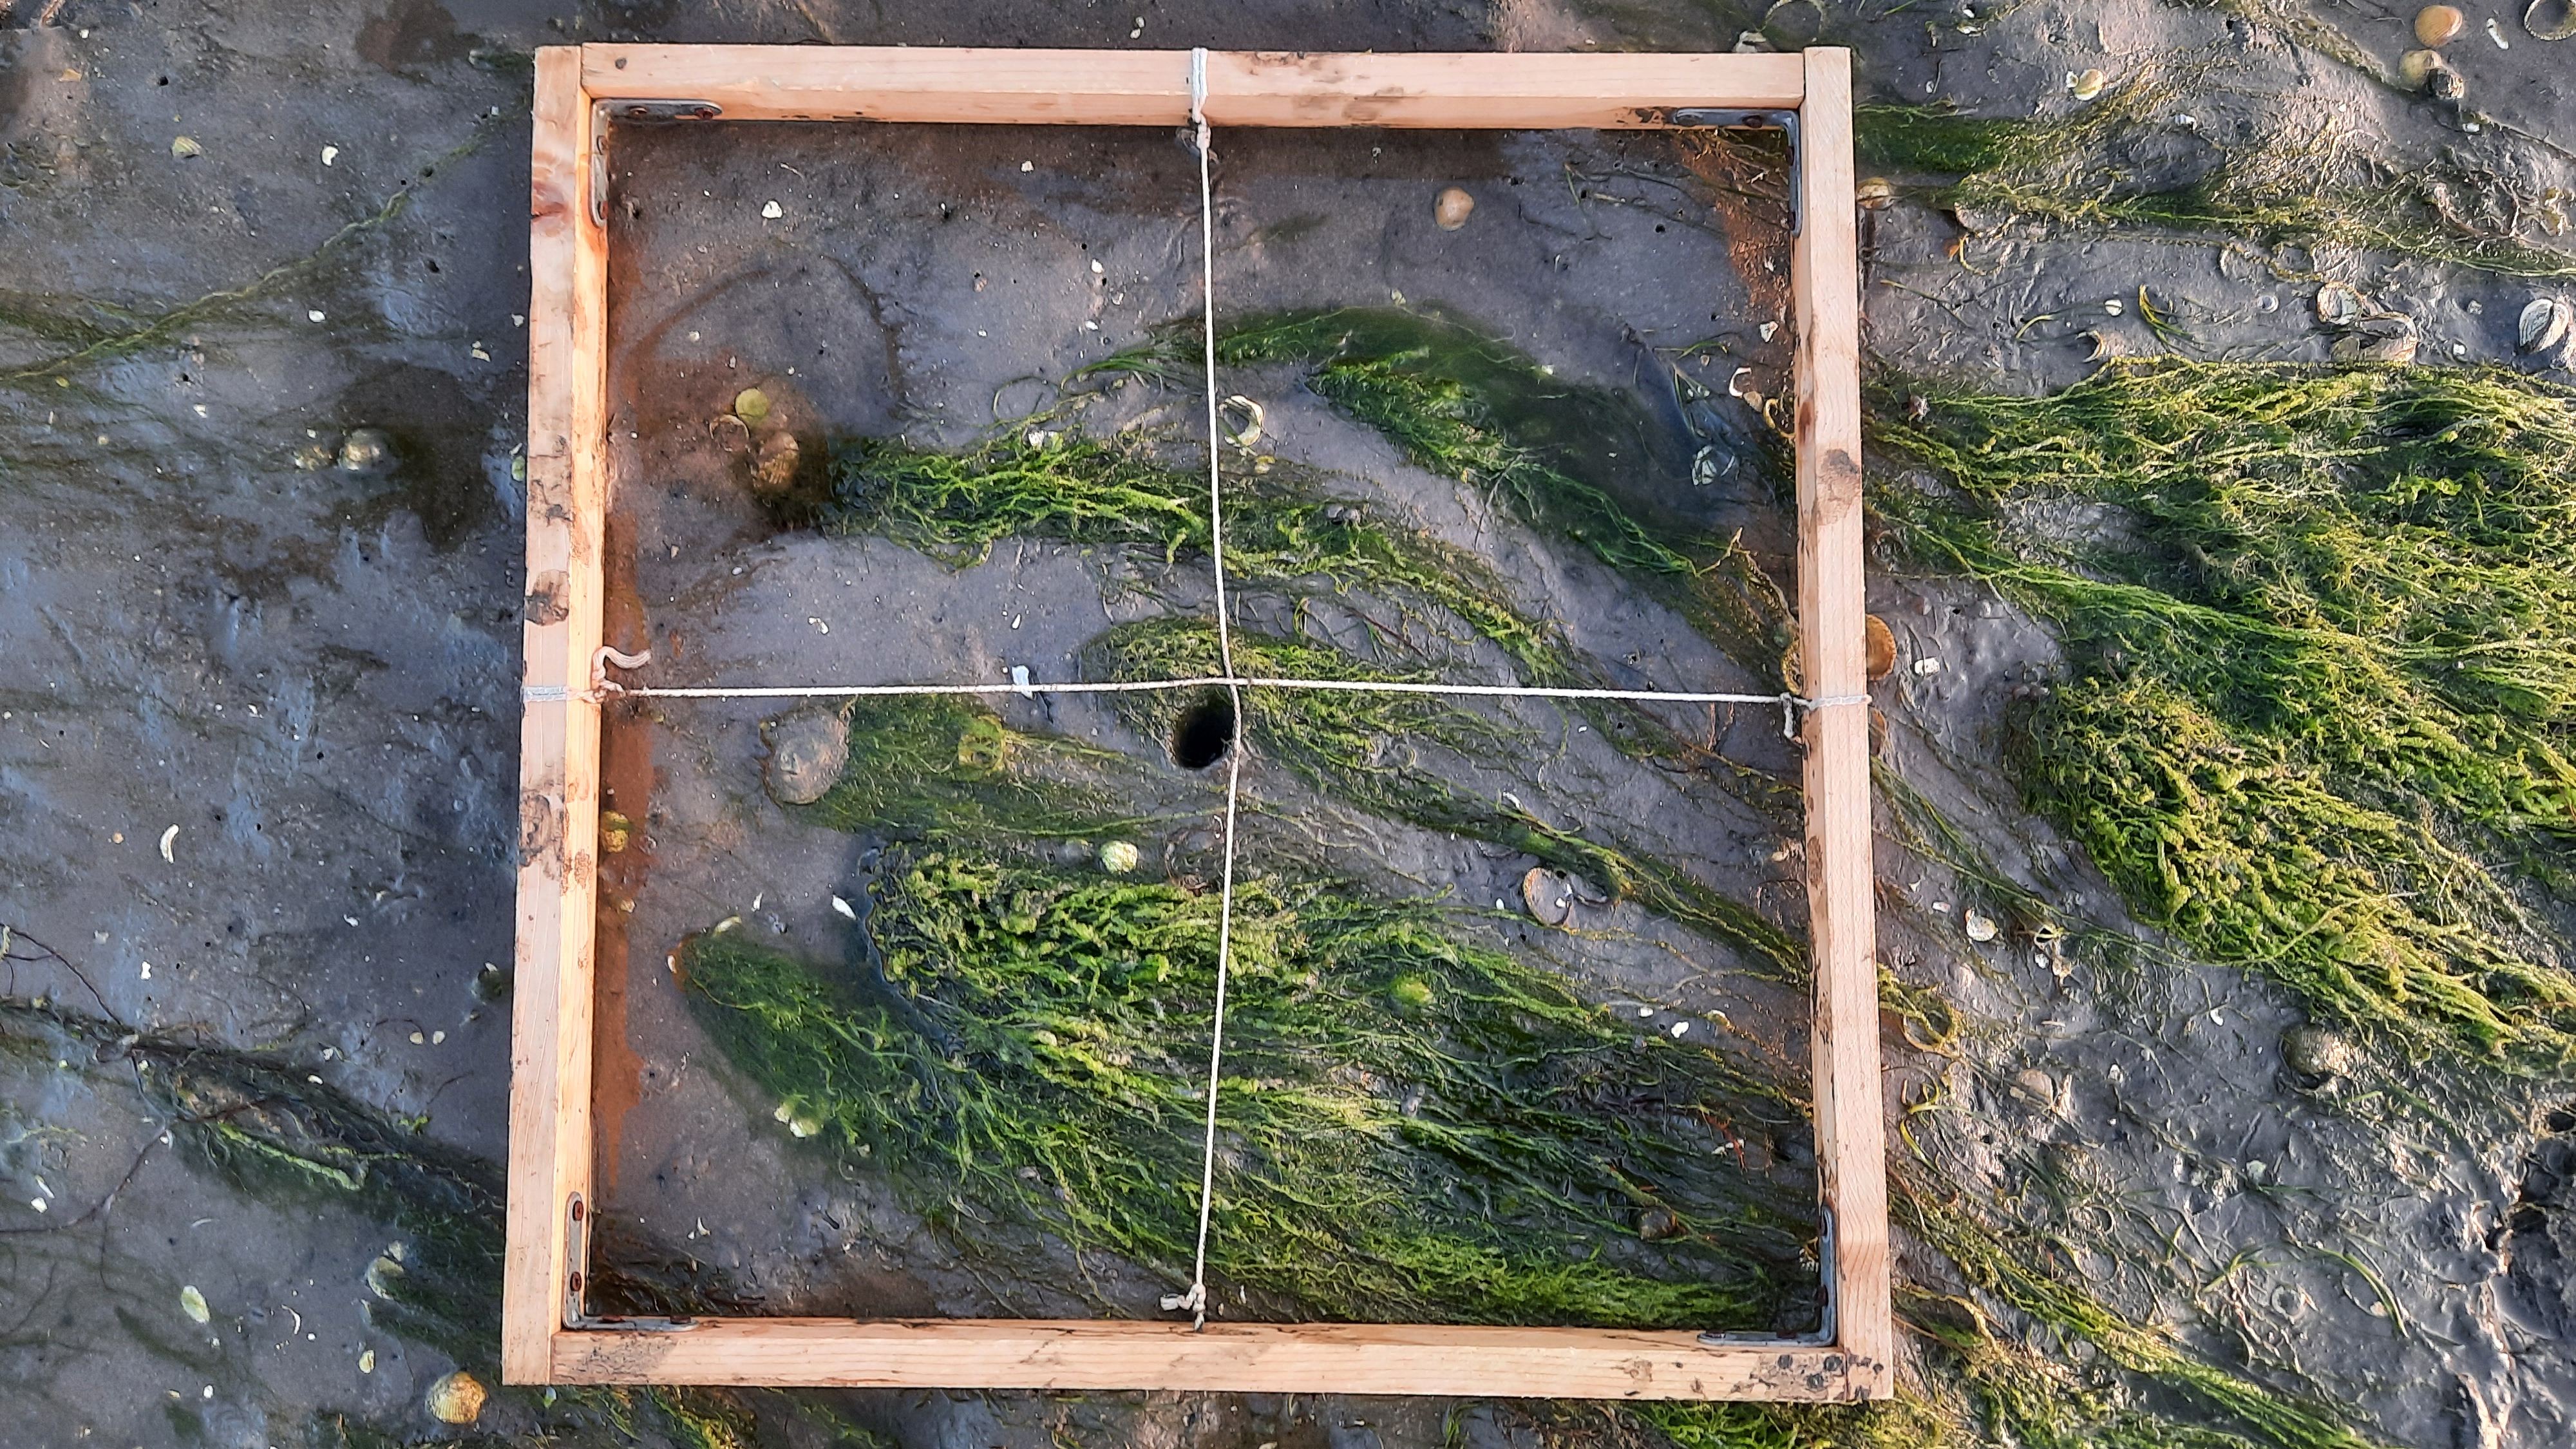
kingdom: Plantae
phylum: Chlorophyta
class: Ulvophyceae
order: Ulvales
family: Ulvaceae
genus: Ulva
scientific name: Ulva
